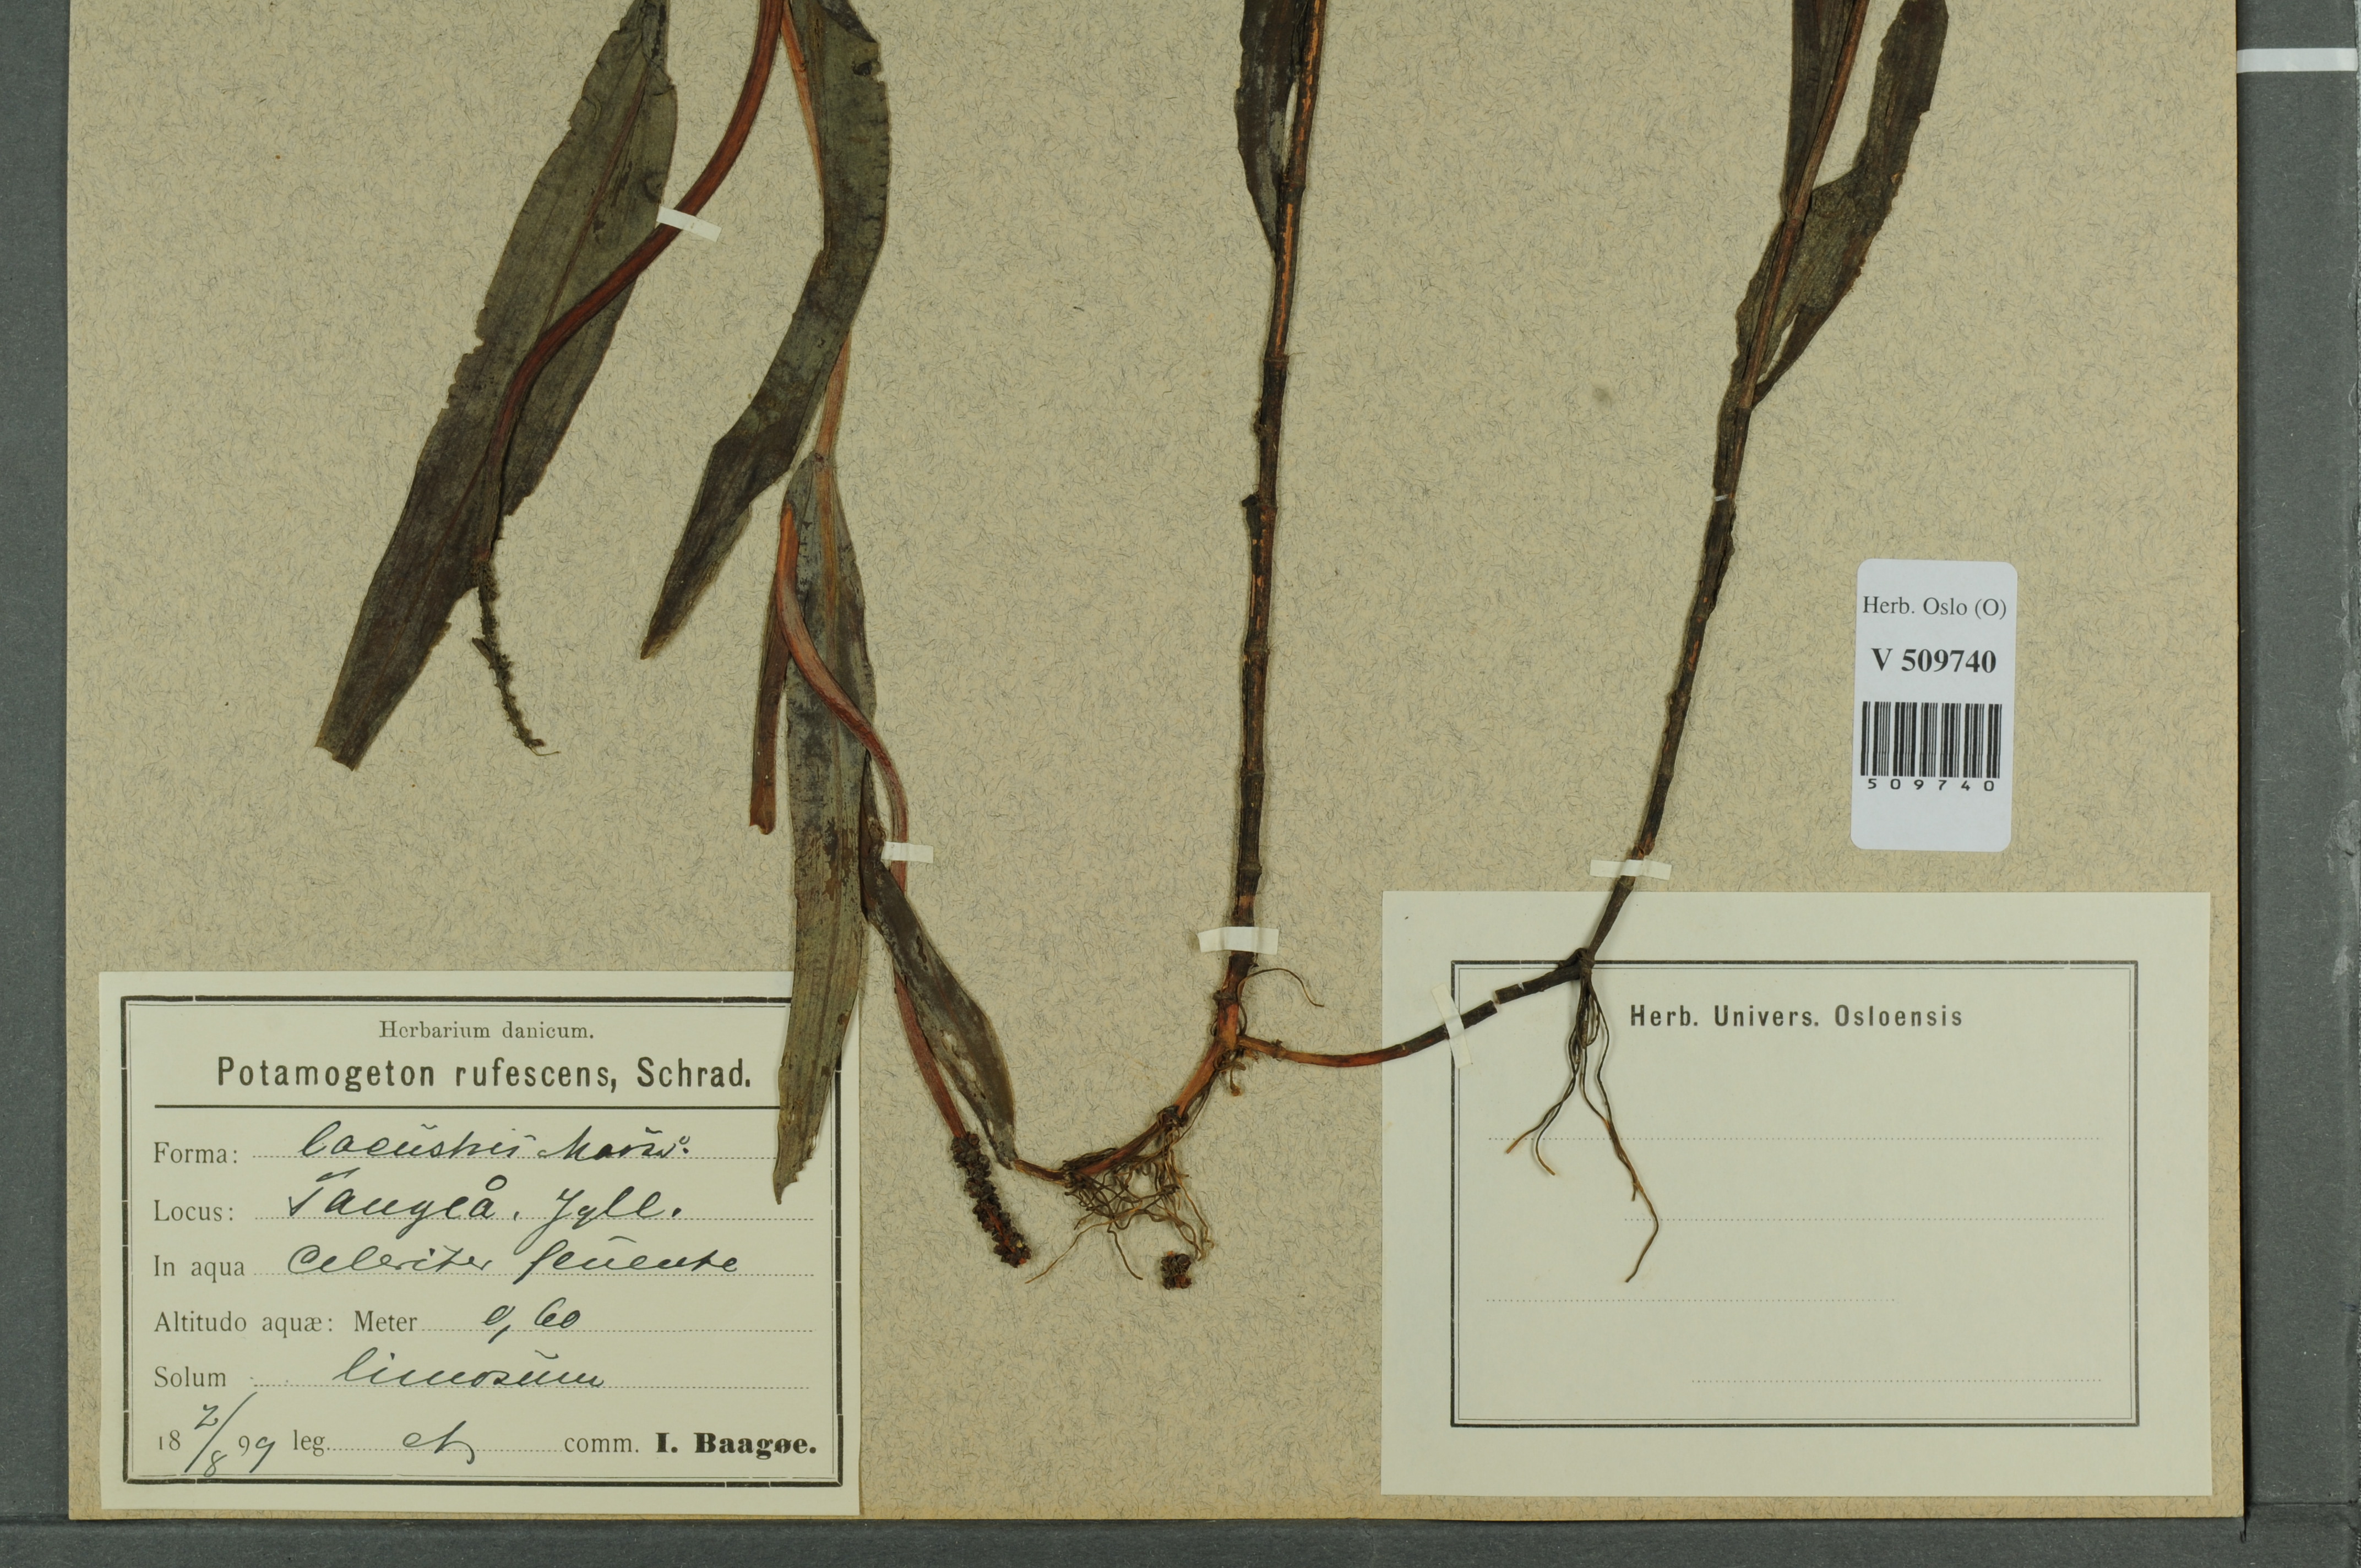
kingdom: Plantae
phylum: Tracheophyta
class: Liliopsida
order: Alismatales
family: Potamogetonaceae
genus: Potamogeton
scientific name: Potamogeton alpinus
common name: Red pondweed
